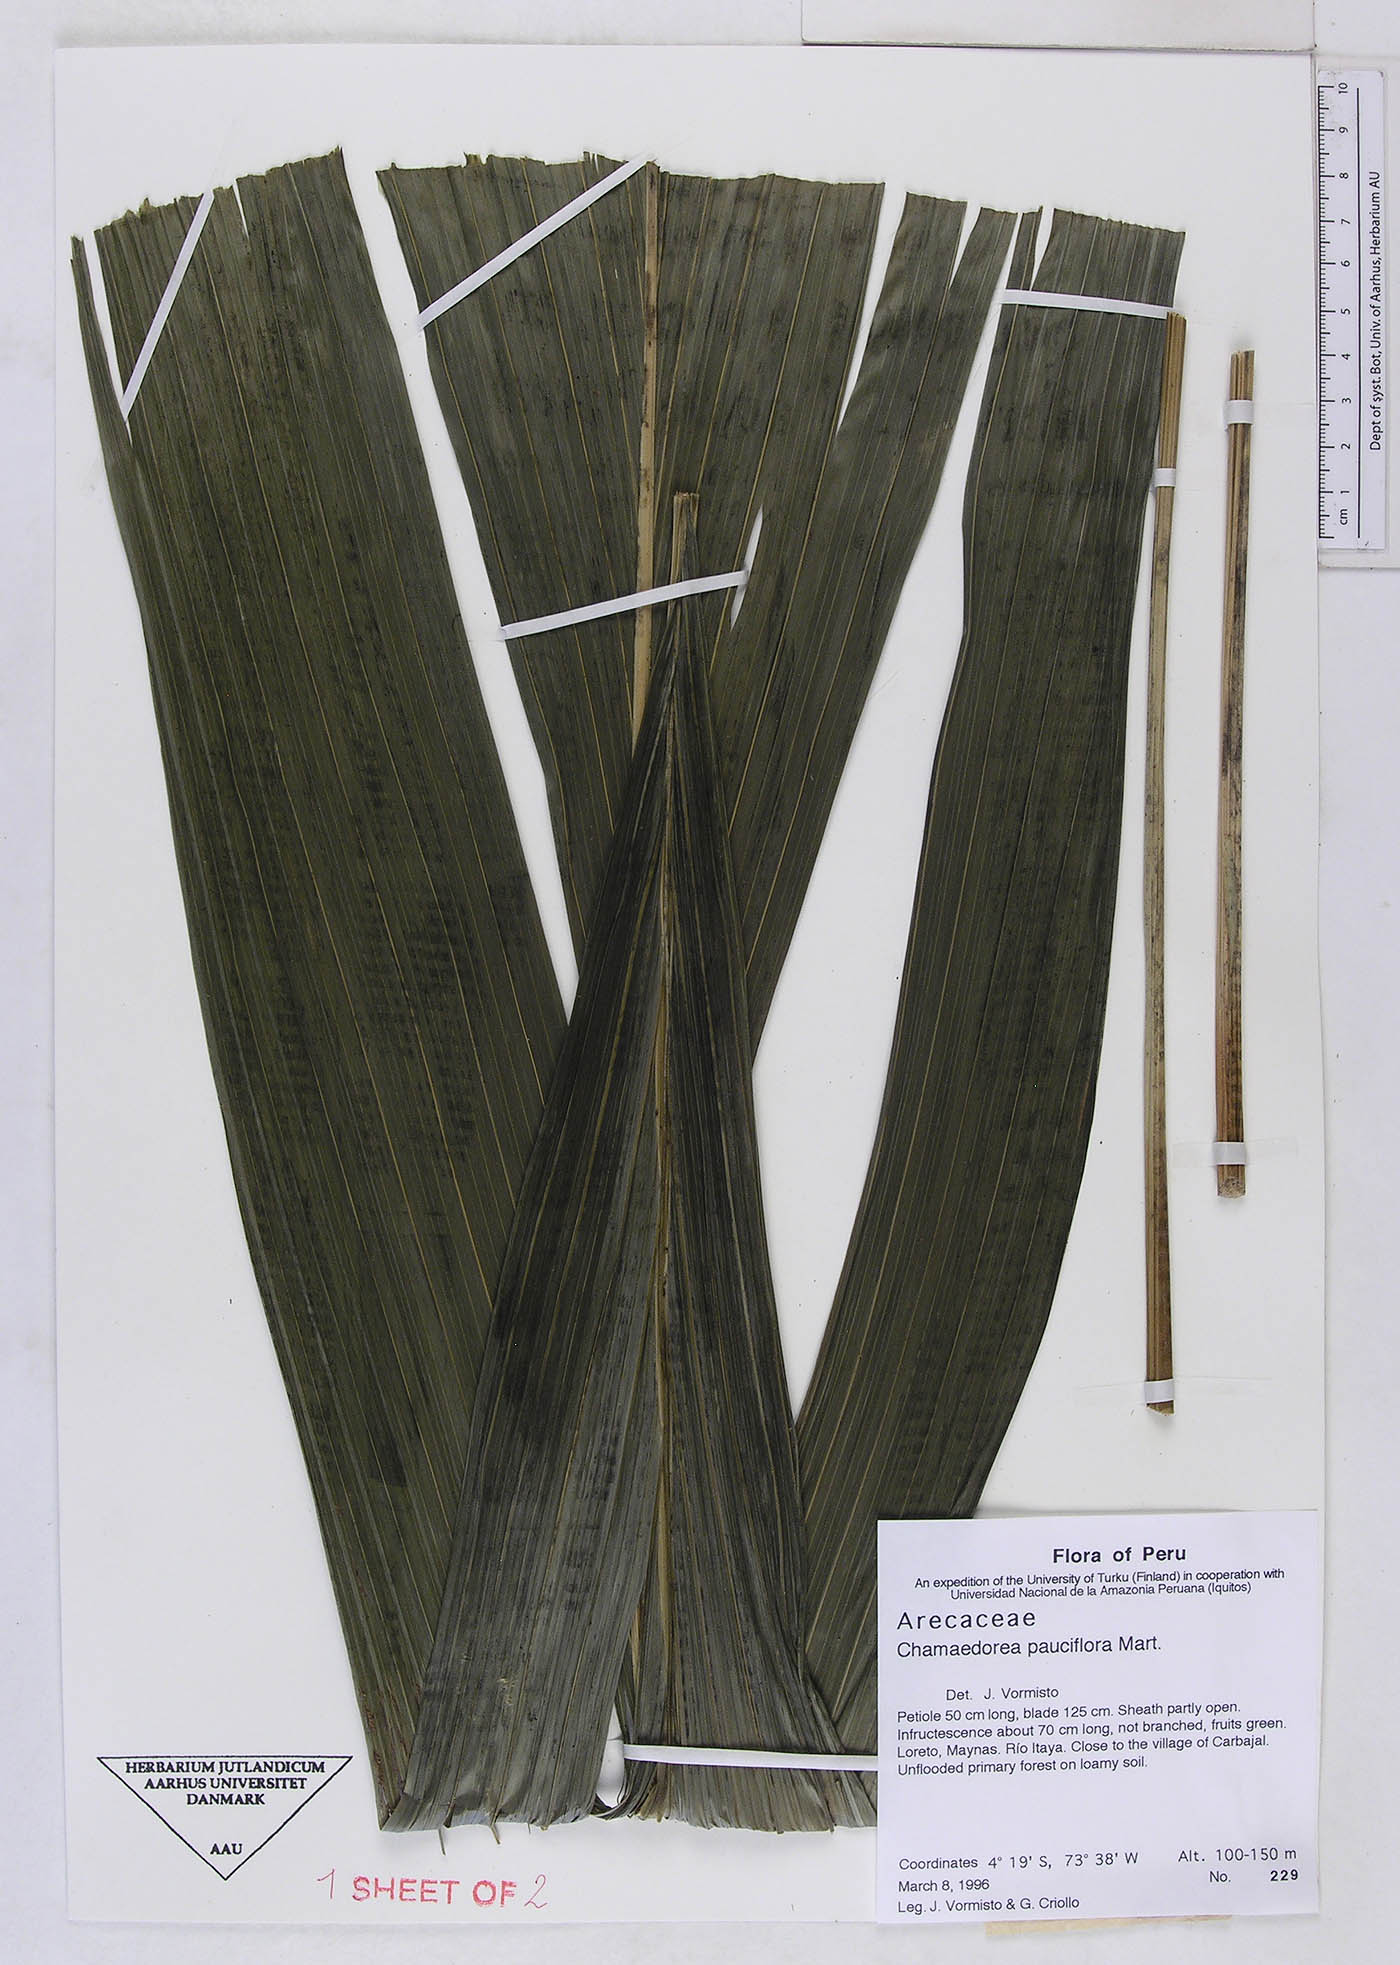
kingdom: Plantae
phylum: Tracheophyta
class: Liliopsida
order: Arecales
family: Arecaceae
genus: Chamaedorea
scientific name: Chamaedorea pauciflora
